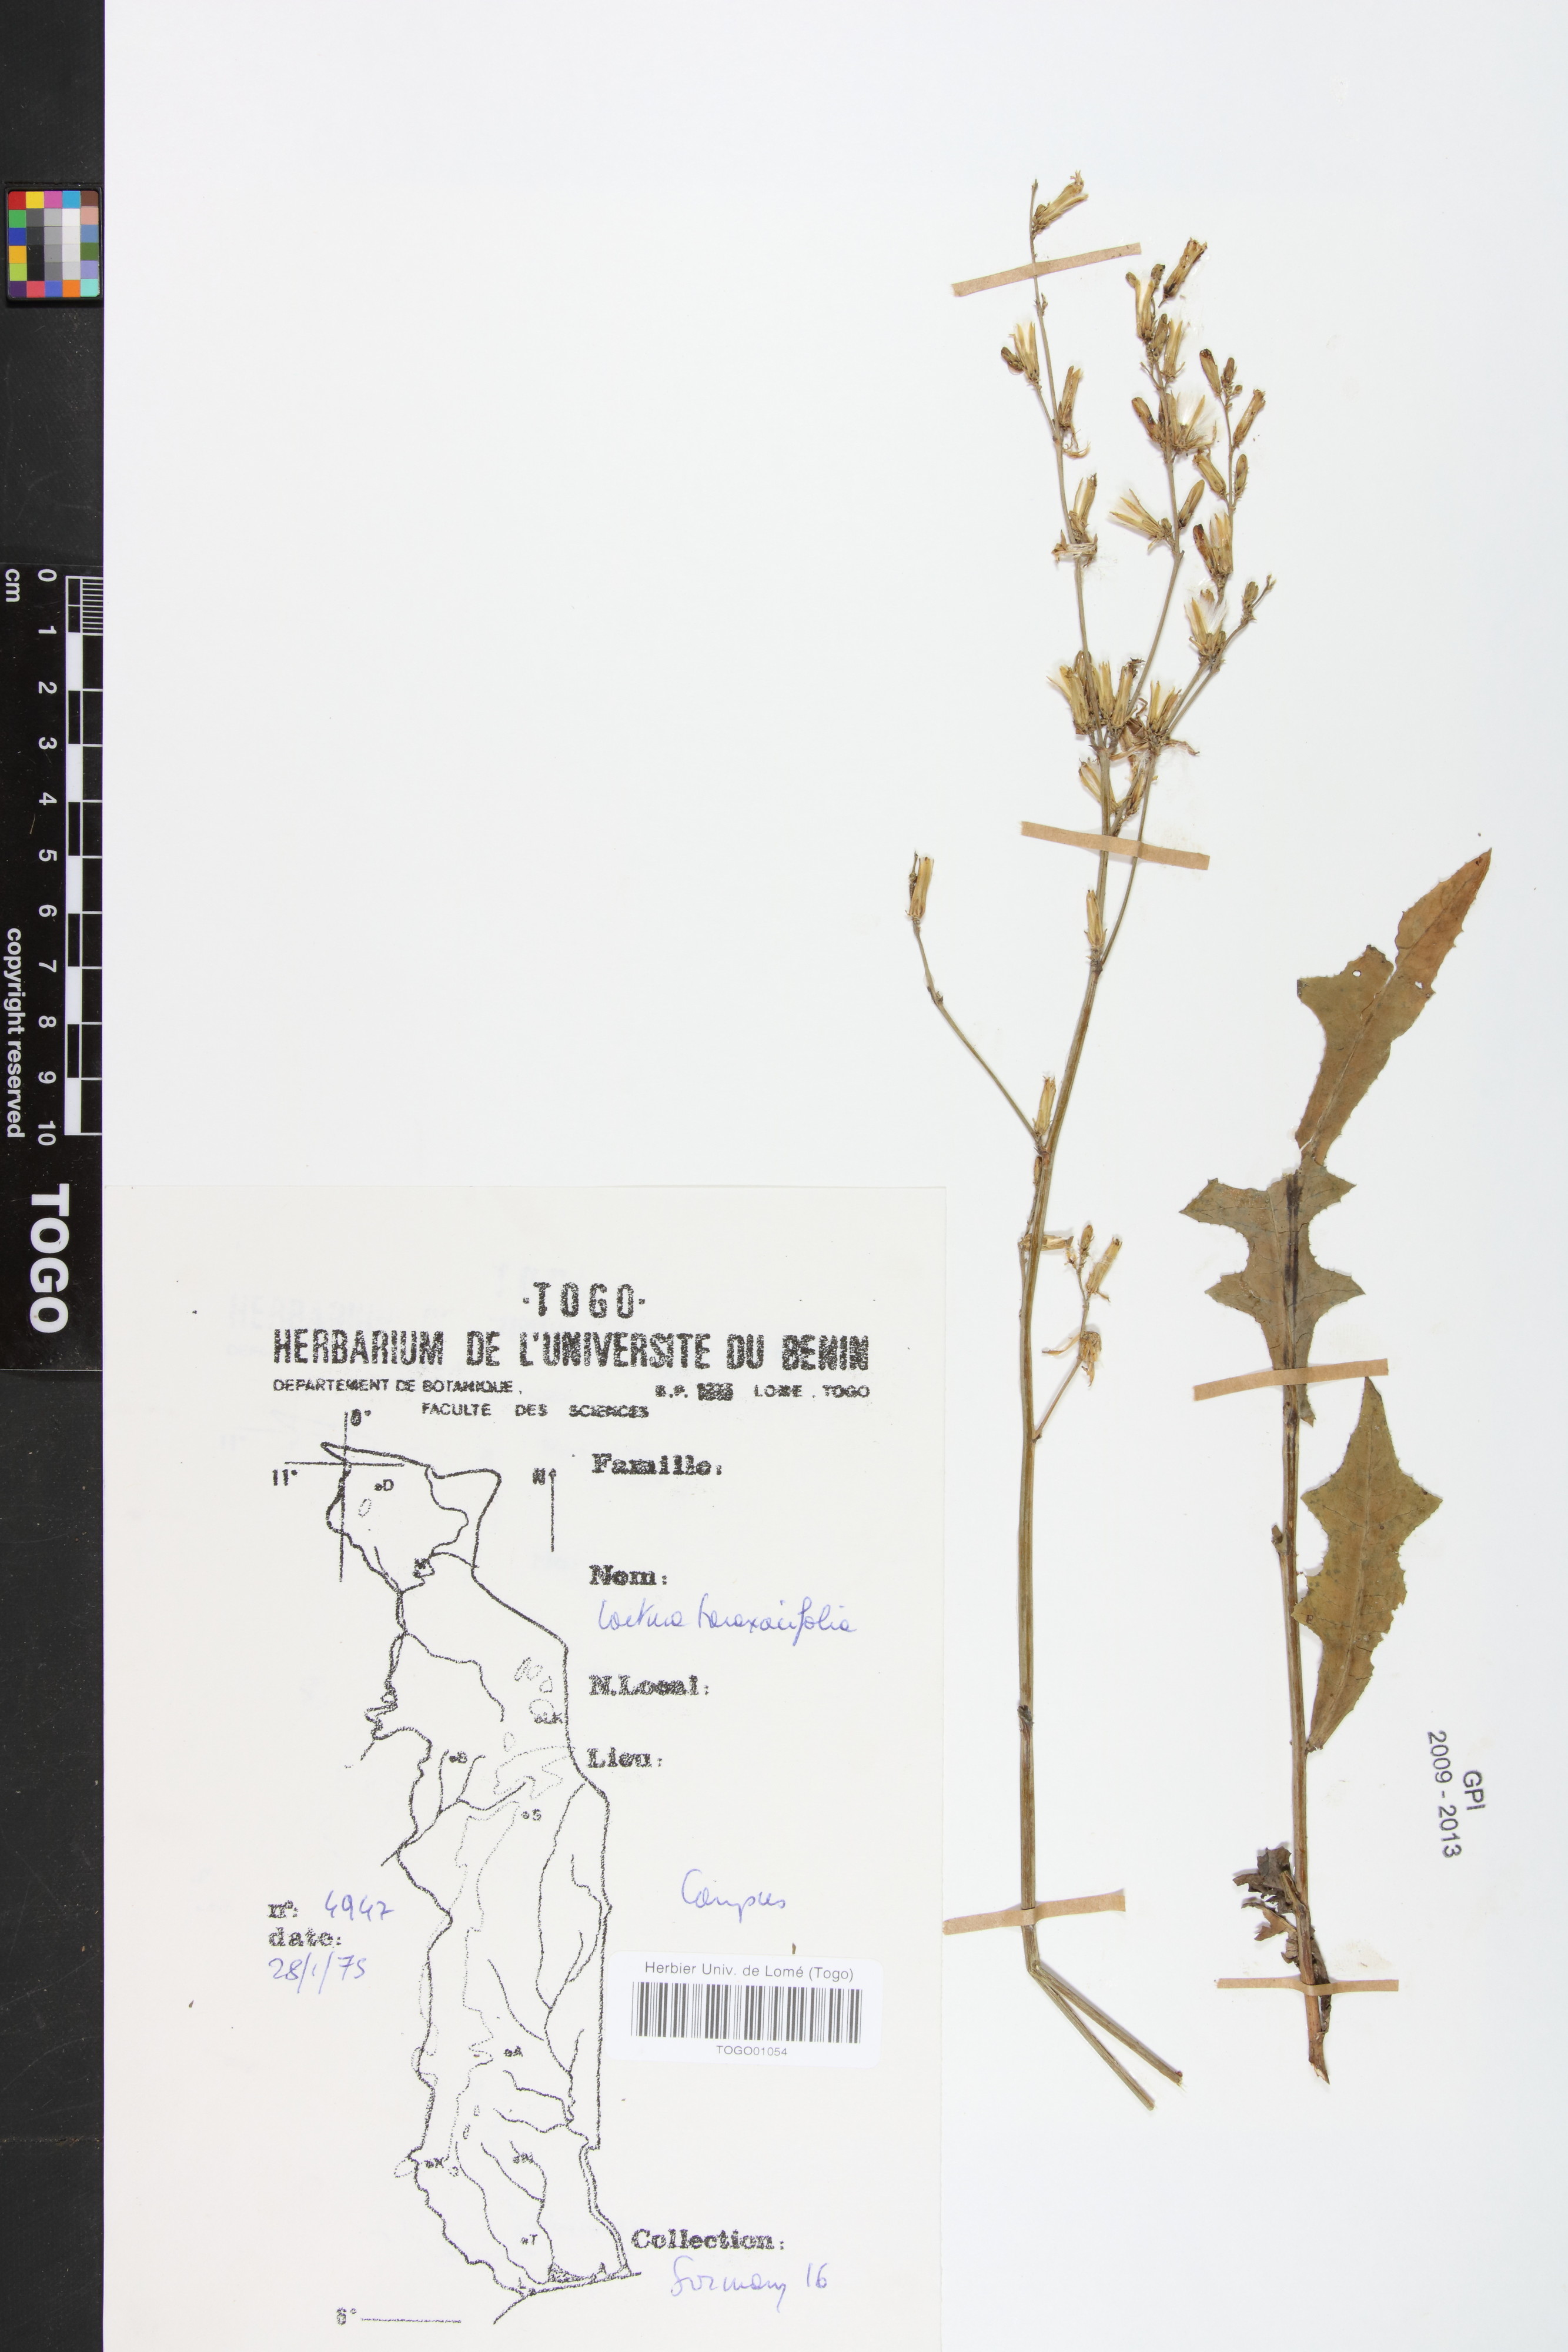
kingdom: Plantae
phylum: Tracheophyta
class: Magnoliopsida
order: Asterales
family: Asteraceae
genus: Launaea
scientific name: Launaea taraxacifolia
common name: African-lettuce
